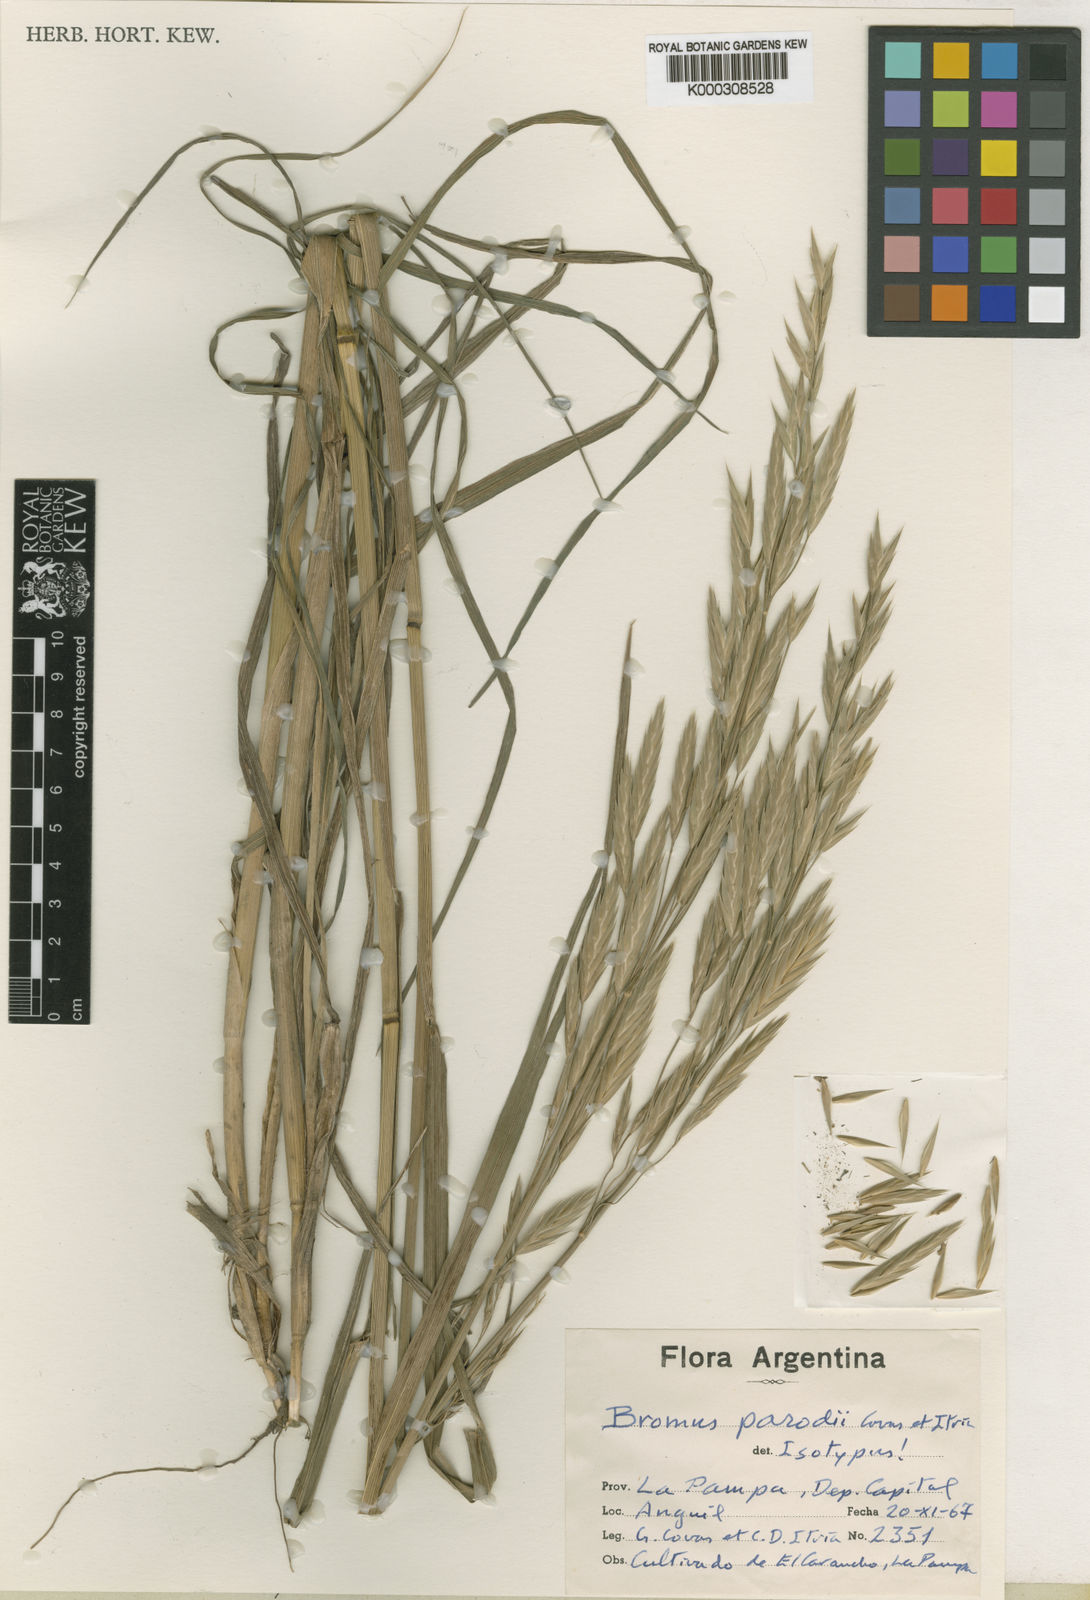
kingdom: Plantae
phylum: Tracheophyta
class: Liliopsida
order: Poales
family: Poaceae
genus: Bromus
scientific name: Bromus parodii
